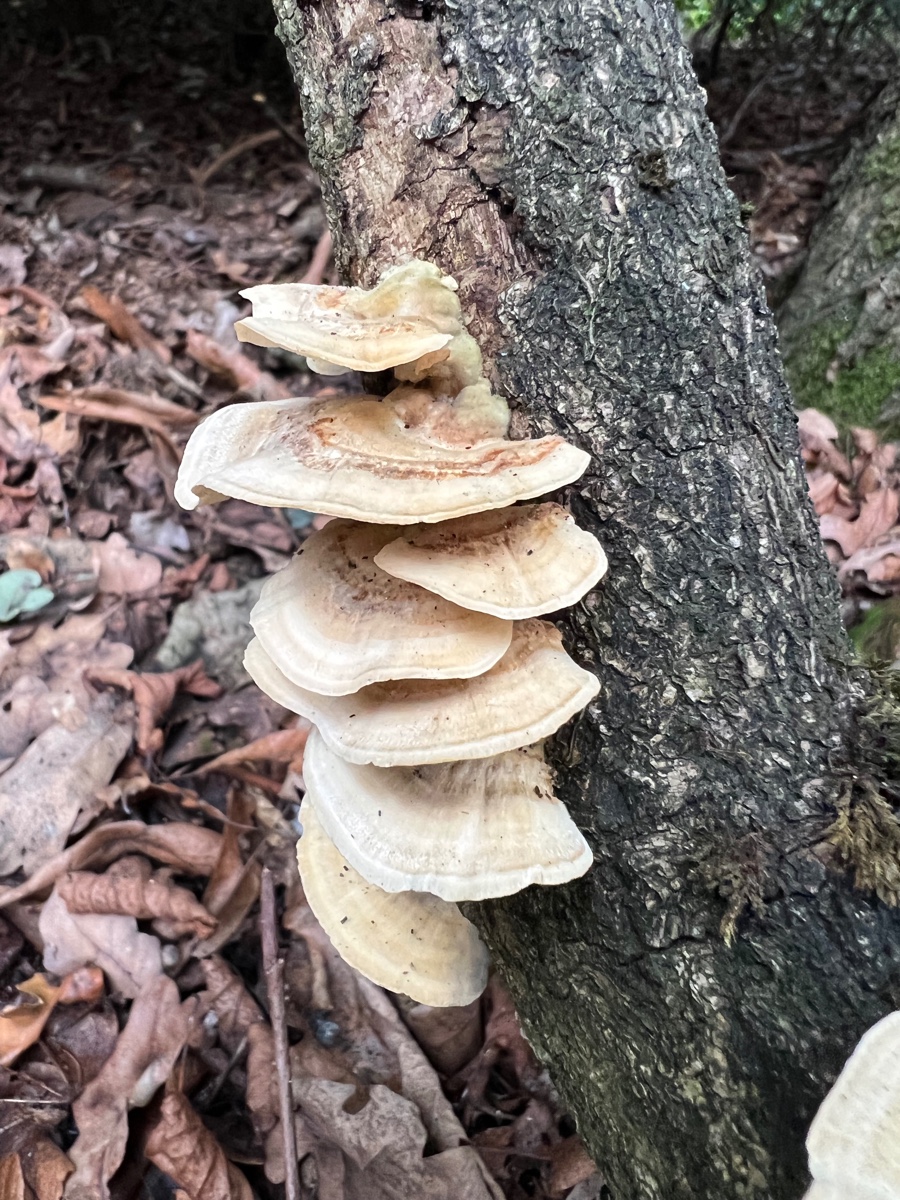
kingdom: Fungi
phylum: Basidiomycota
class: Agaricomycetes
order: Polyporales
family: Polyporaceae
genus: Trametes
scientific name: Trametes
